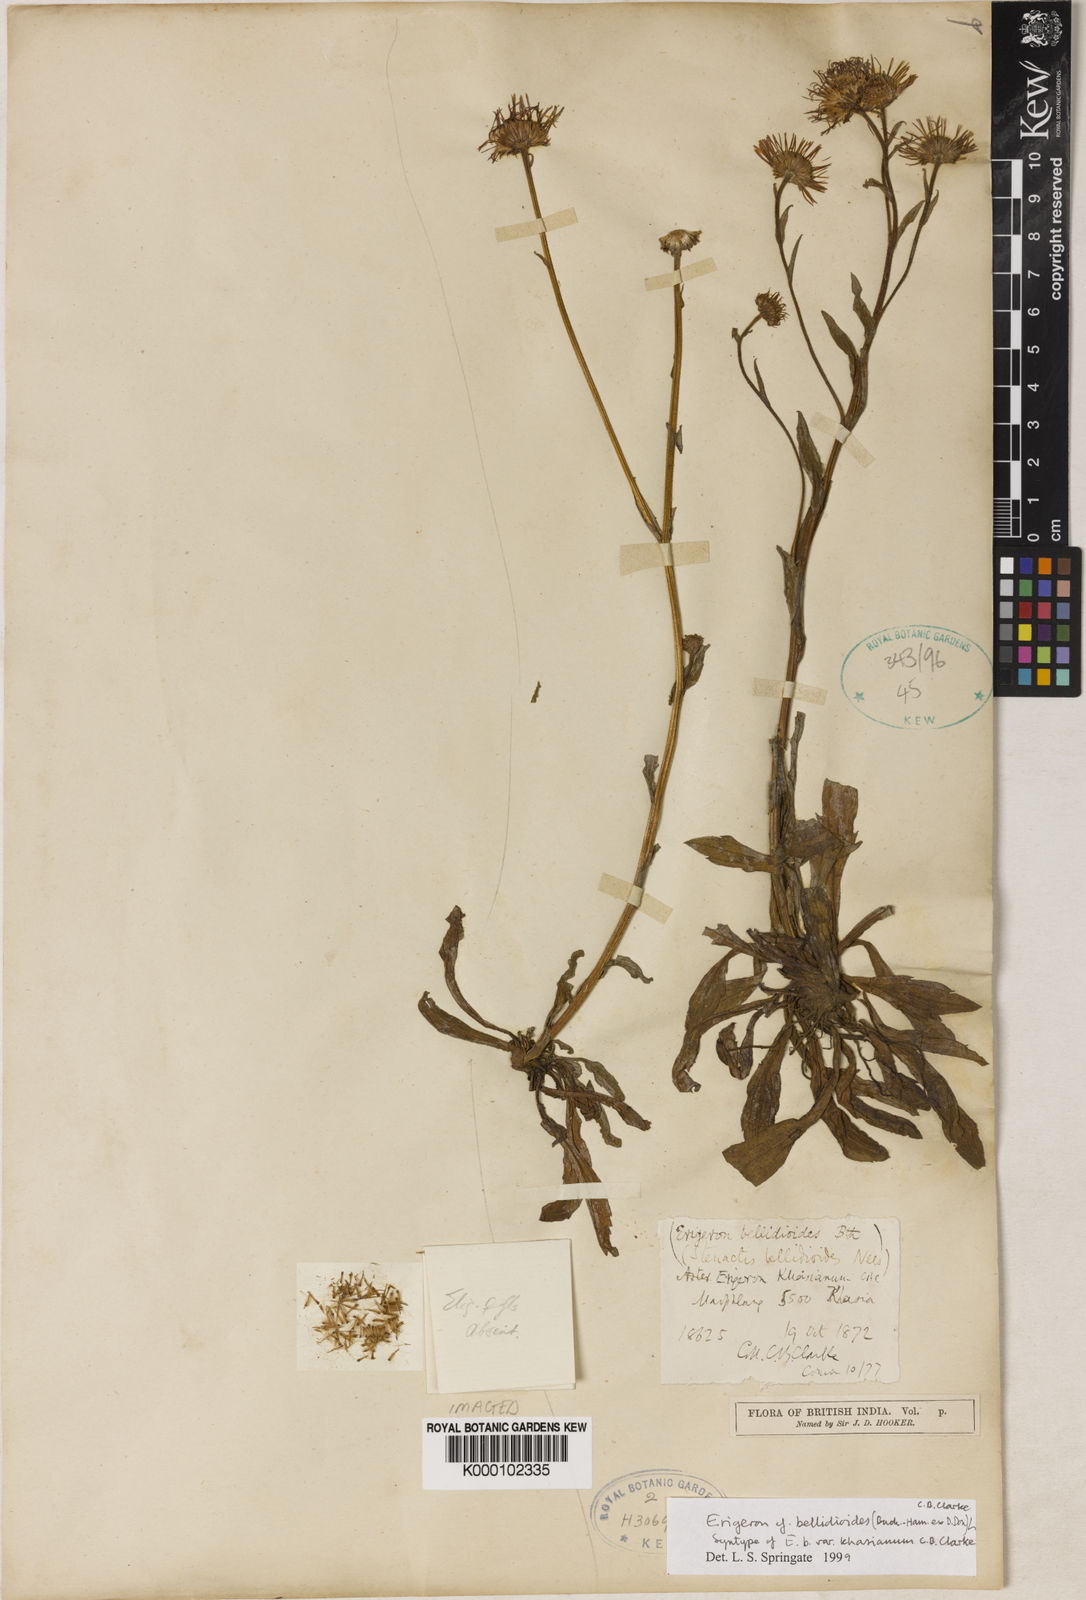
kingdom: Plantae
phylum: Tracheophyta
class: Magnoliopsida
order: Asterales
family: Asteraceae
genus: Erigeron
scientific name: Erigeron alpinus
